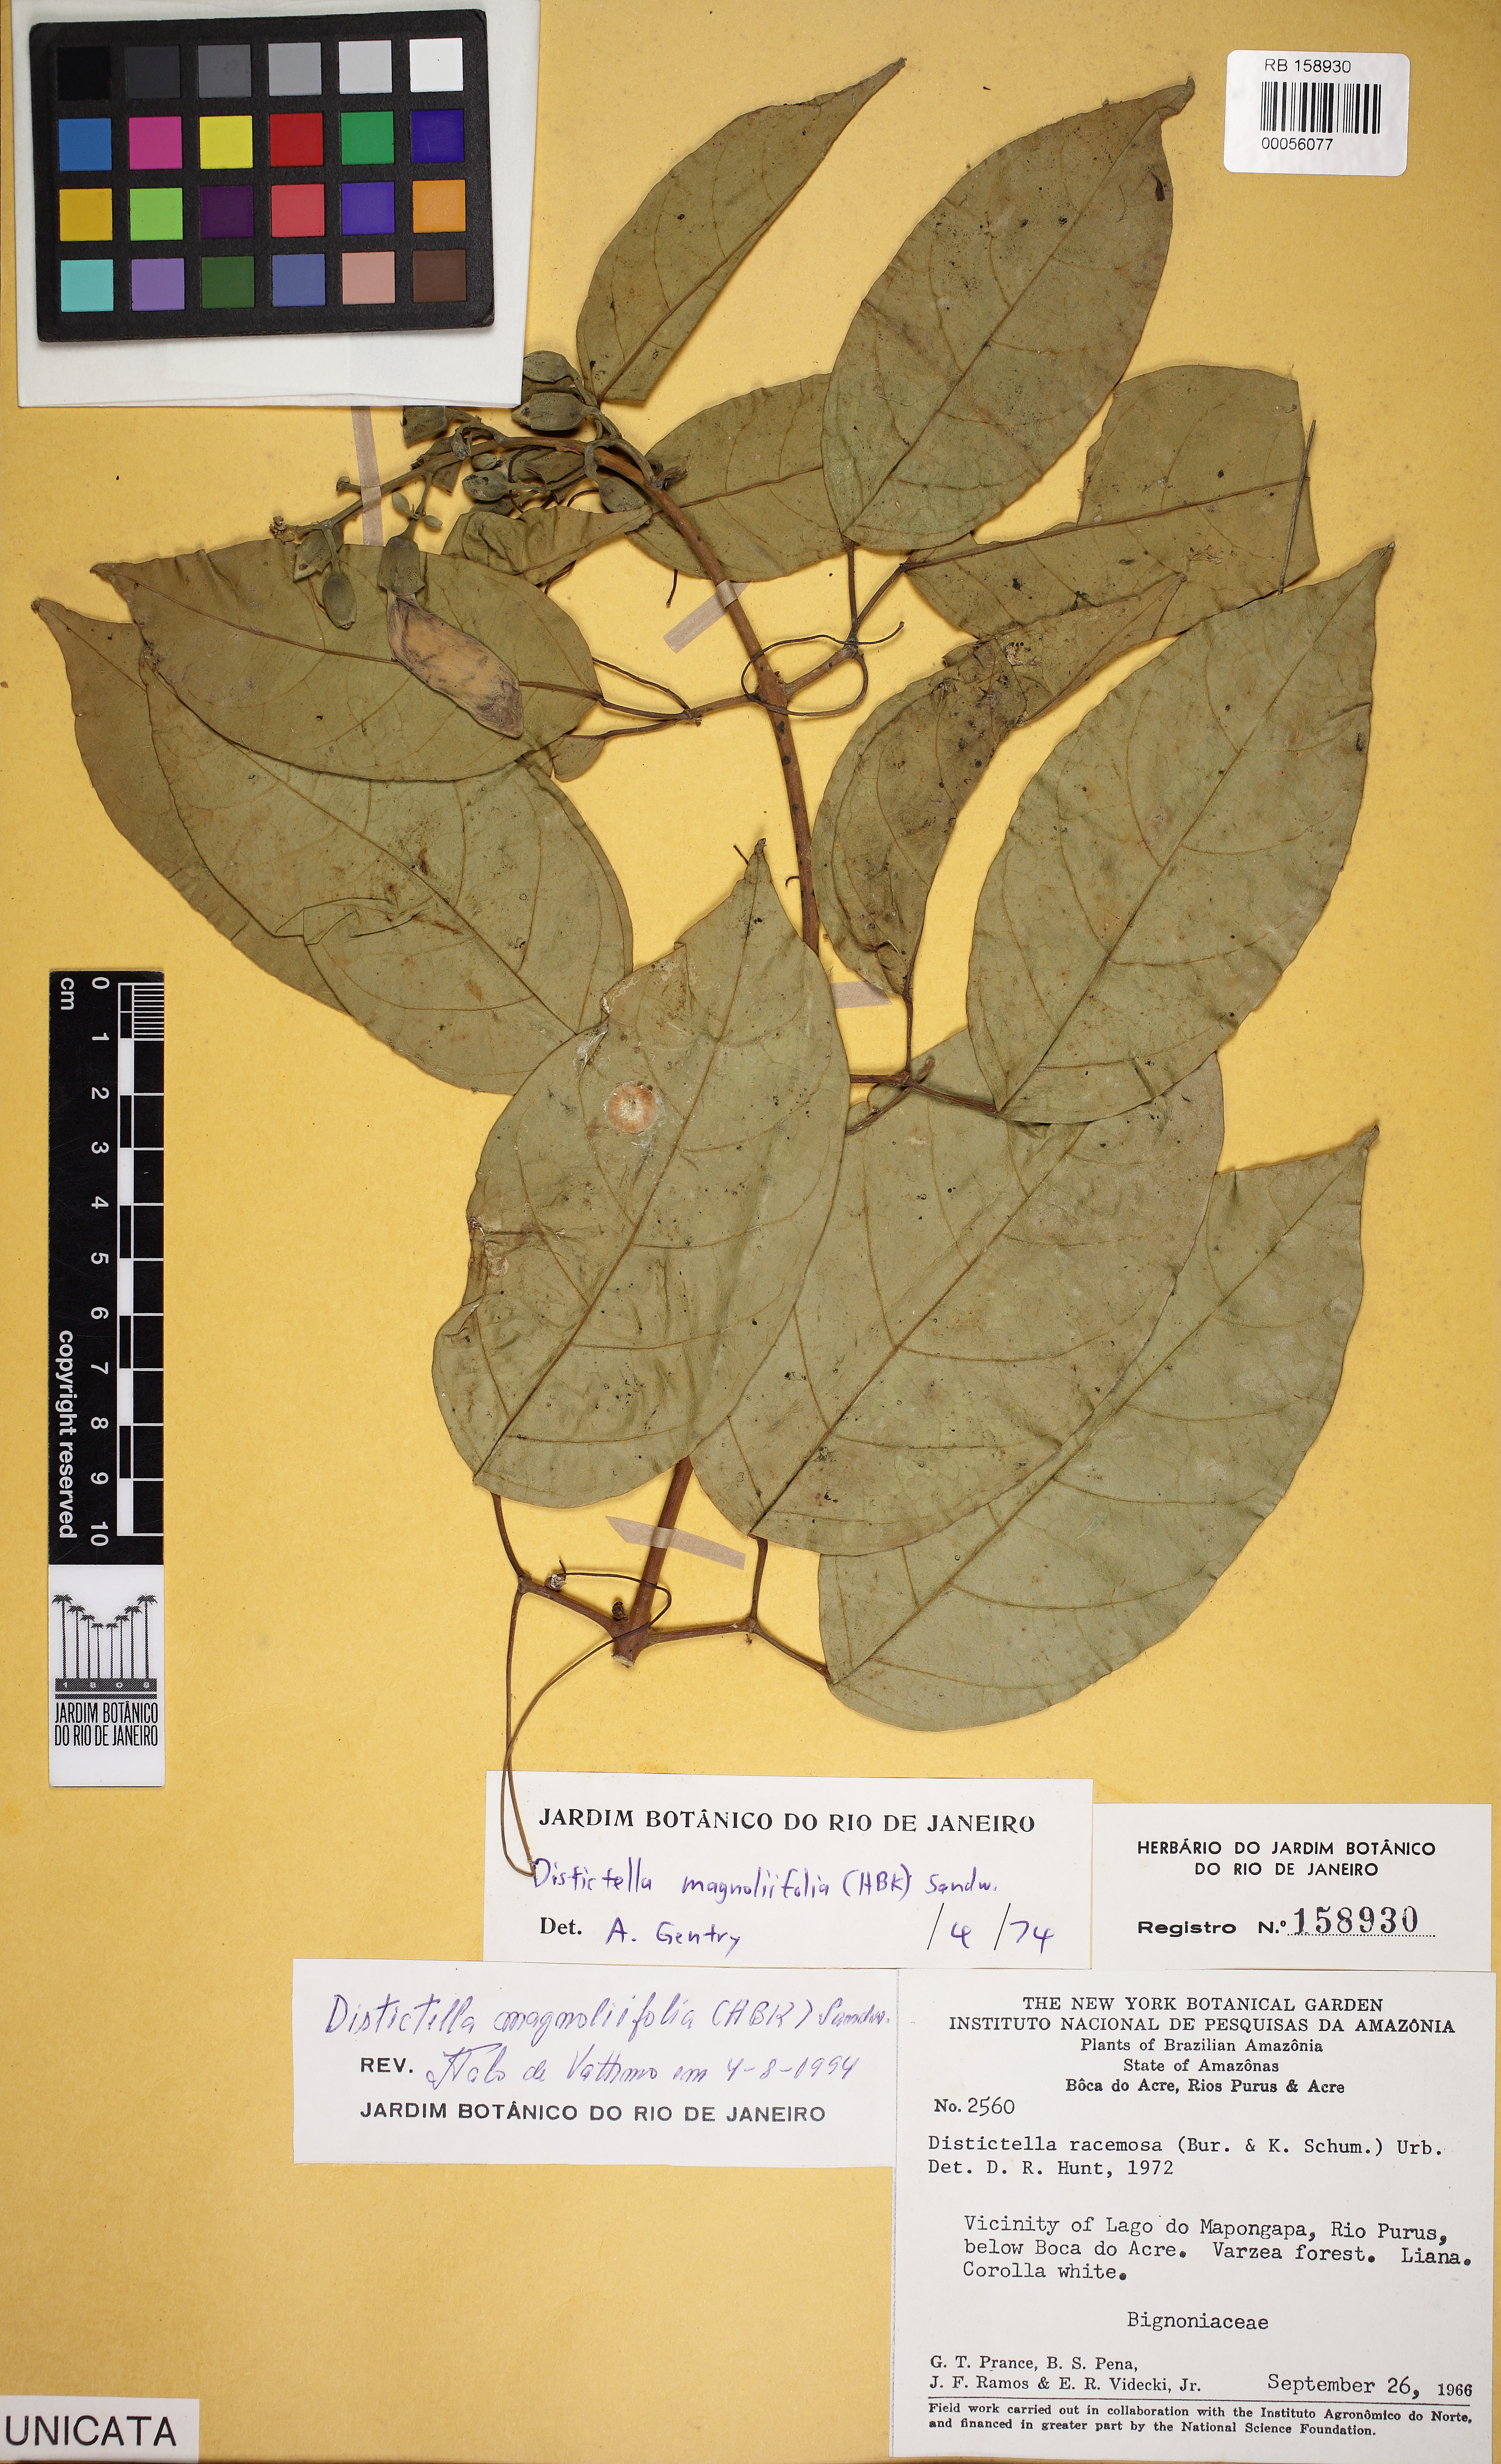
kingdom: Plantae
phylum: Tracheophyta
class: Magnoliopsida
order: Lamiales
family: Bignoniaceae
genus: Amphilophium
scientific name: Amphilophium magnoliifolium
